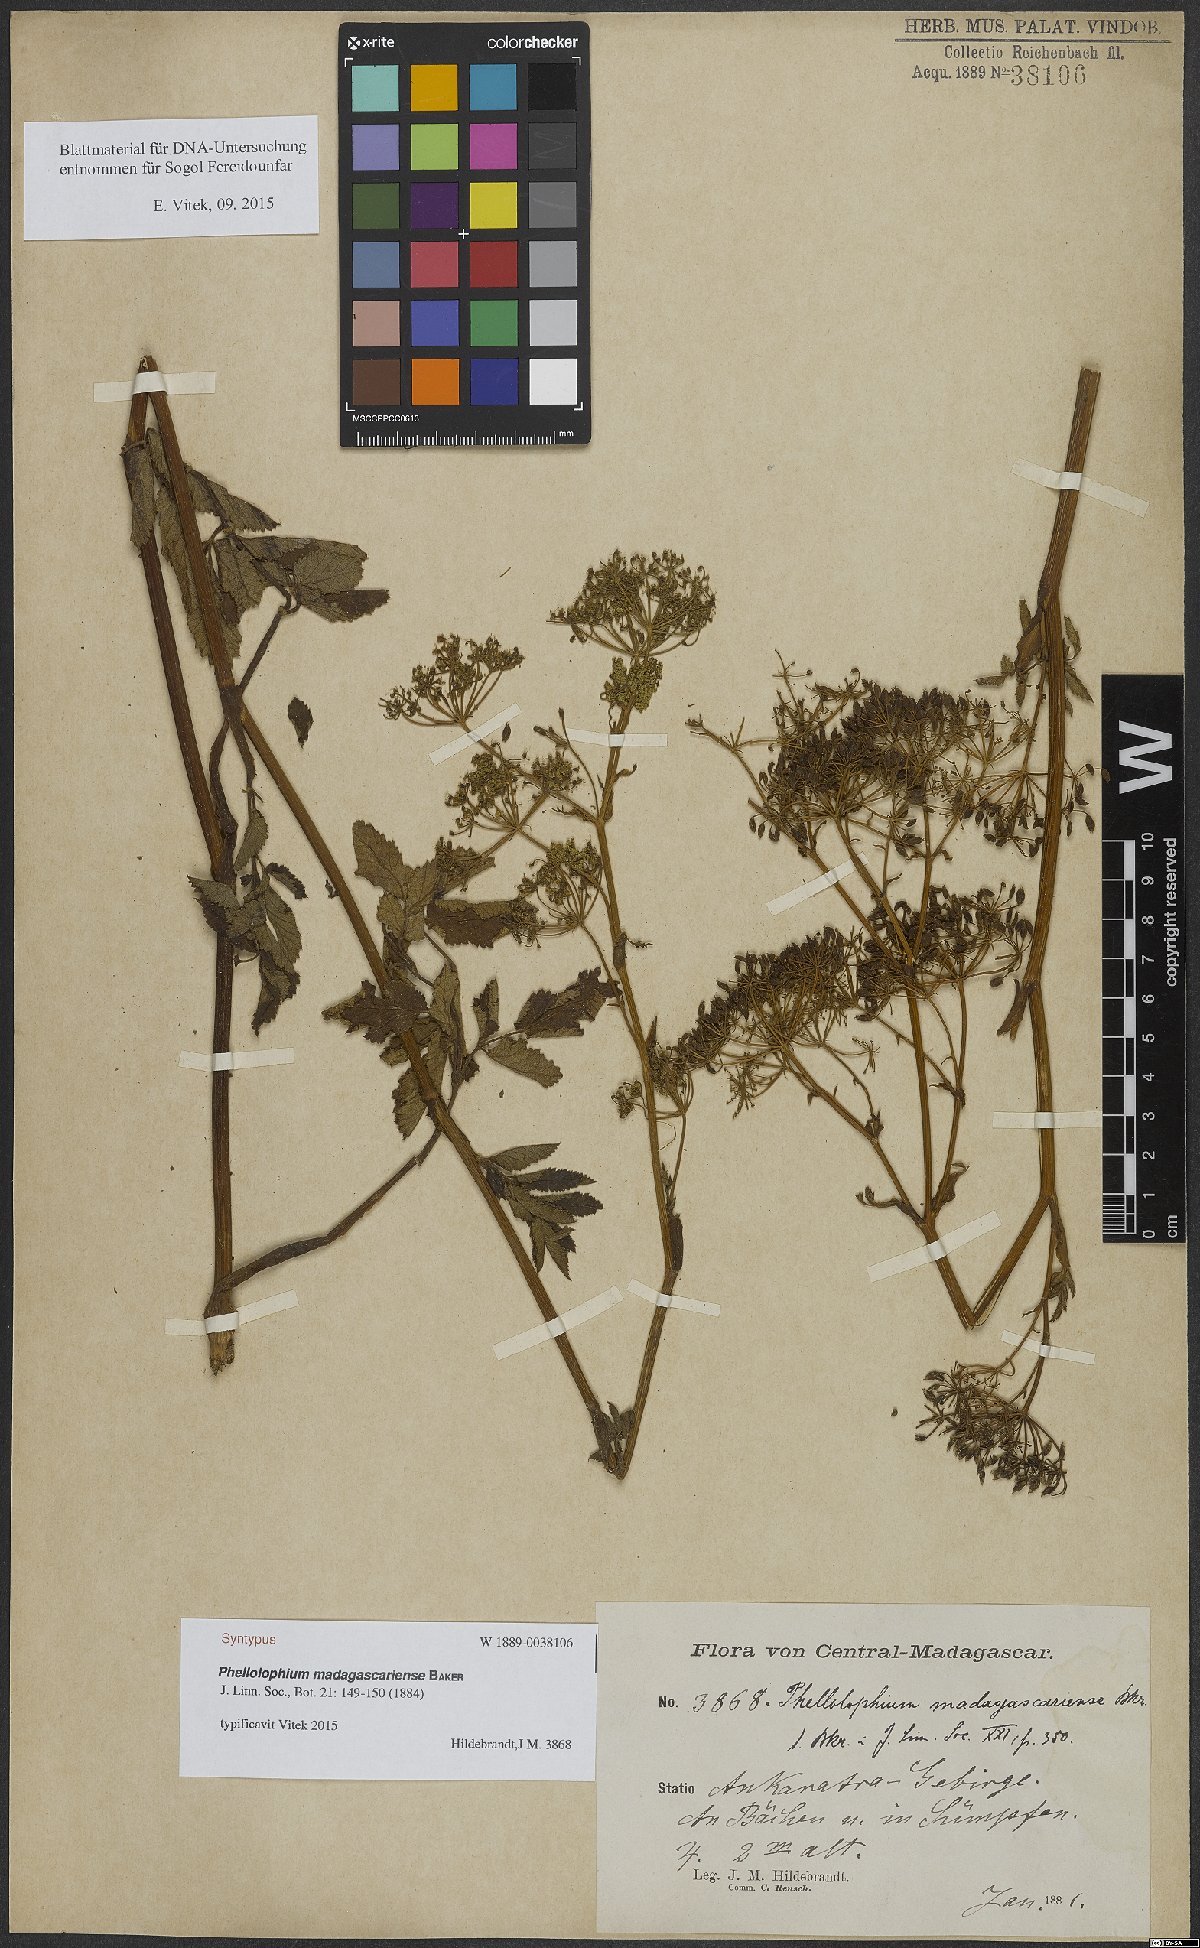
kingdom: Plantae
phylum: Tracheophyta
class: Magnoliopsida
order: Apiales
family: Apiaceae
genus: Phellolophium
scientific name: Phellolophium madagascariense
